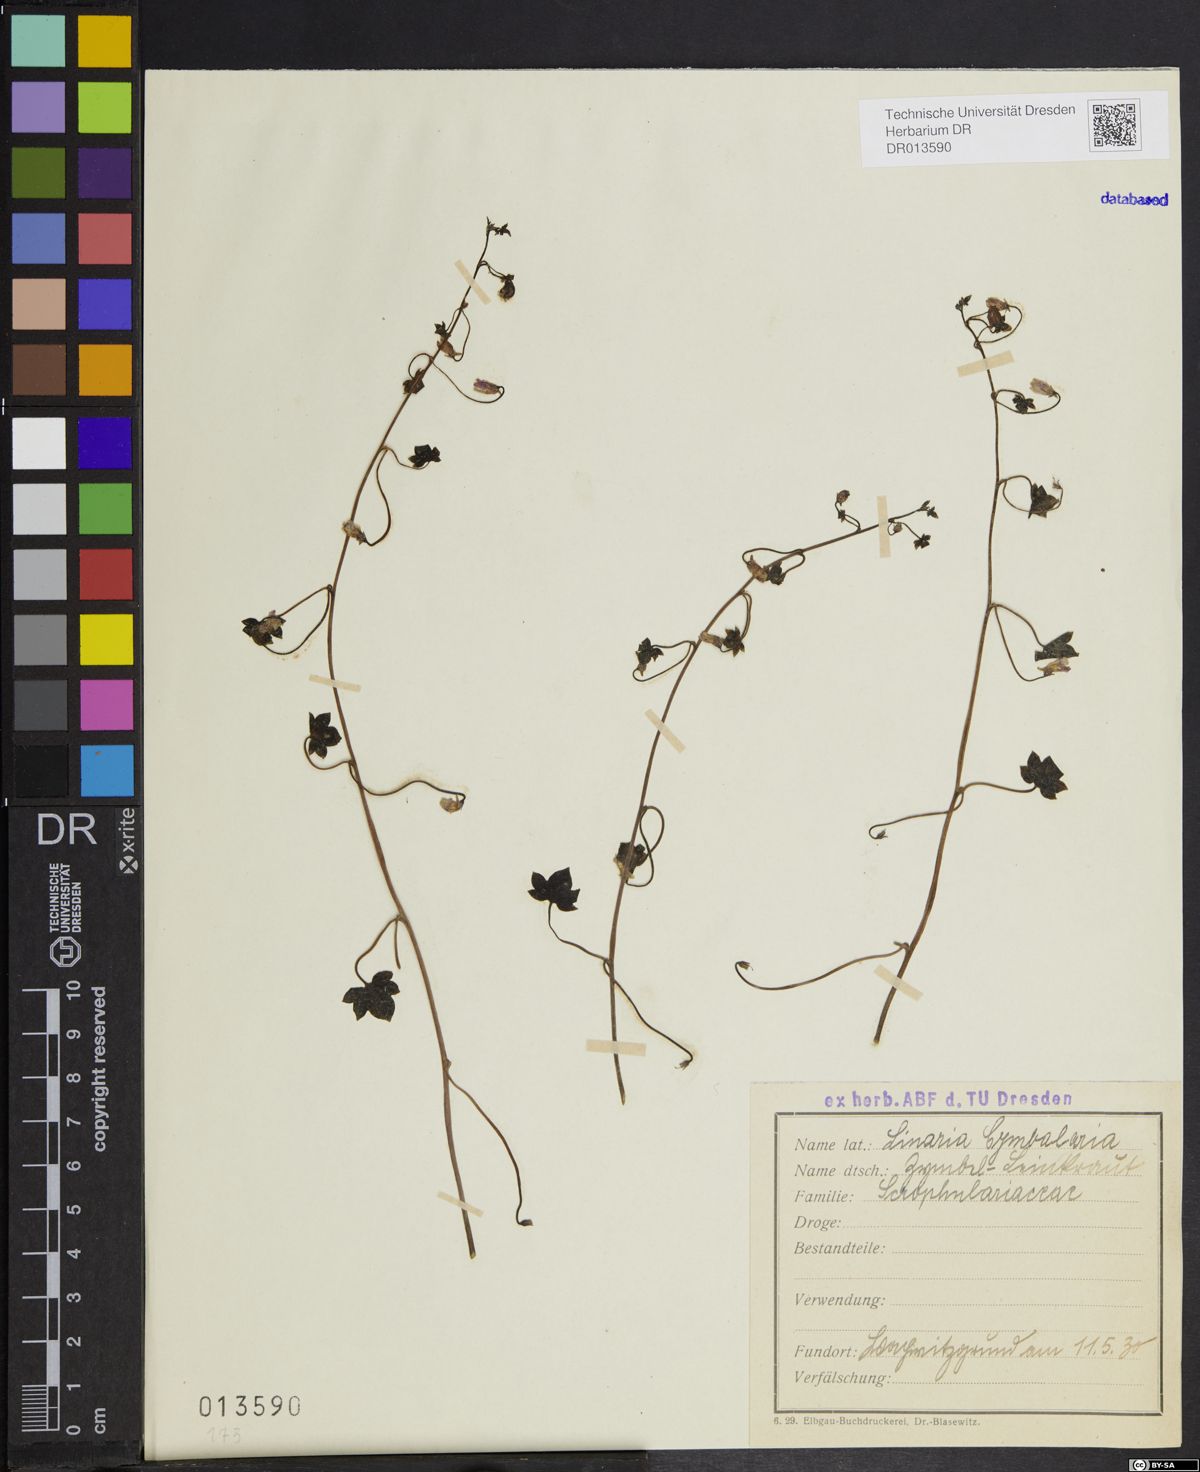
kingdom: Plantae
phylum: Tracheophyta
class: Magnoliopsida
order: Lamiales
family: Plantaginaceae
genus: Cymbalaria
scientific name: Cymbalaria muralis
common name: Ivy-leaved toadflax
